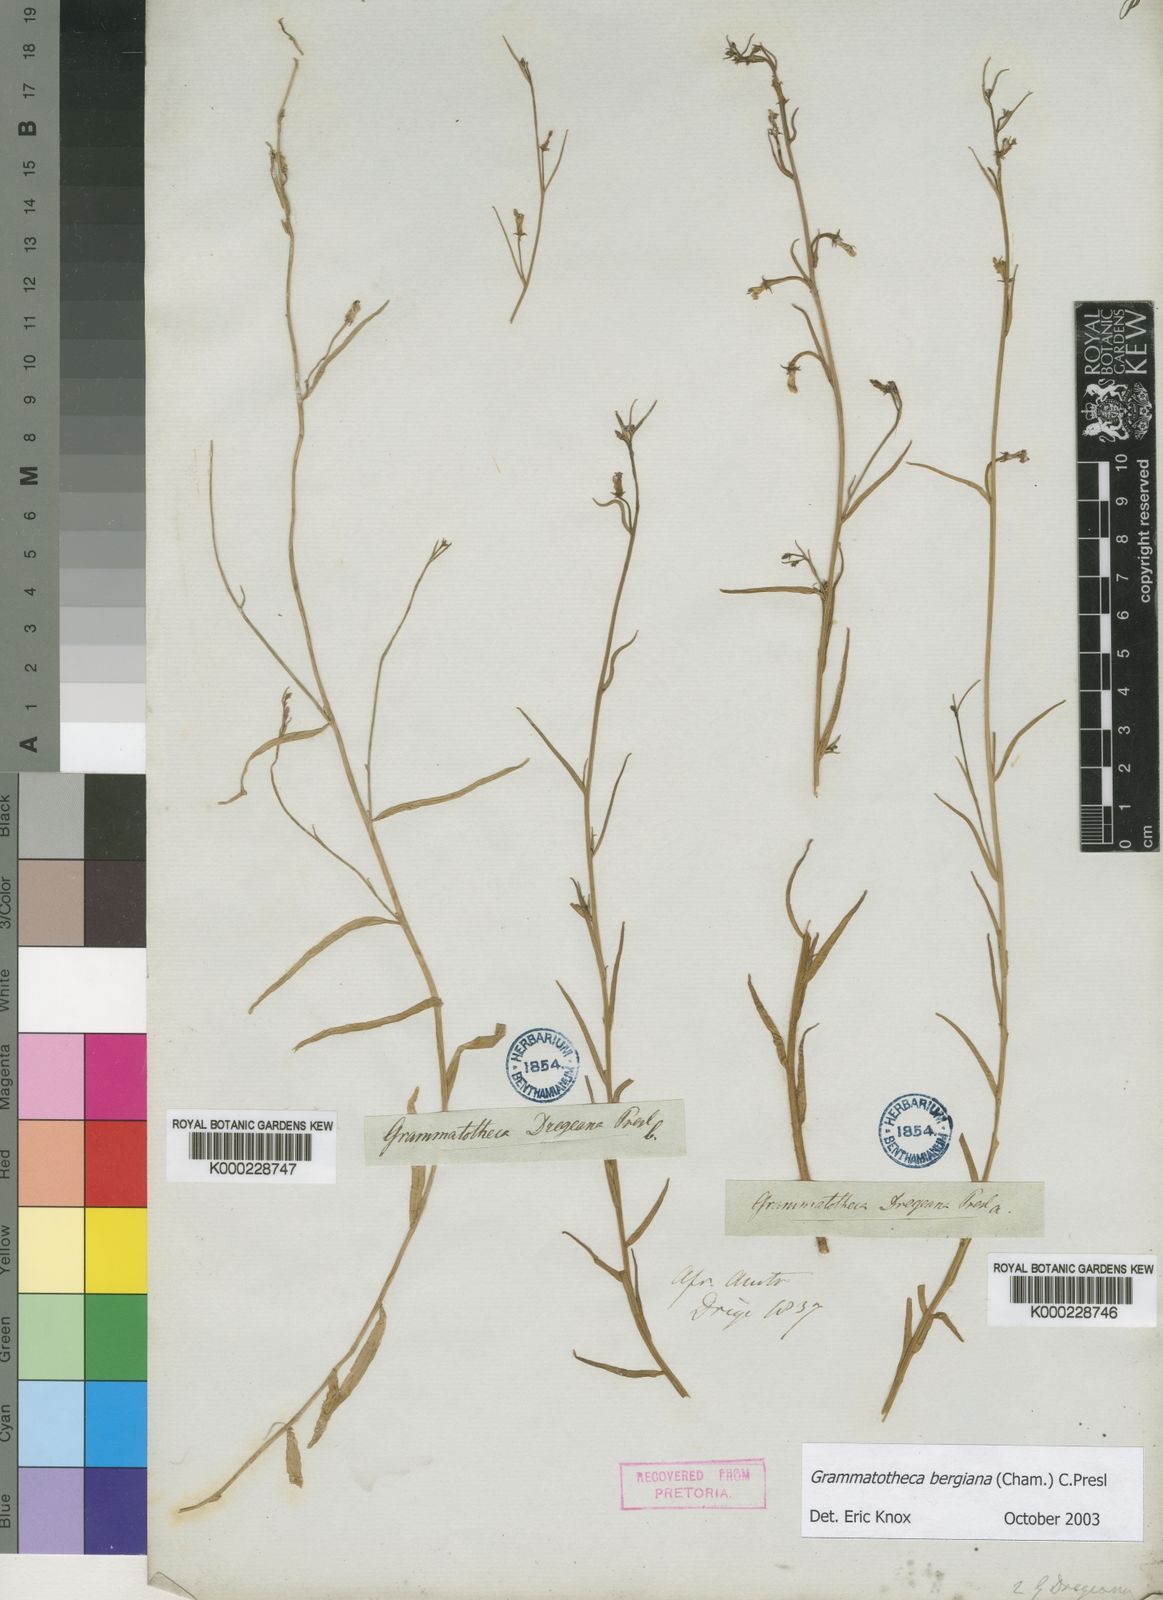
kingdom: Plantae
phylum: Tracheophyta
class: Magnoliopsida
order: Asterales
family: Campanulaceae
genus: Grammatotheca
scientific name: Grammatotheca bergiana
